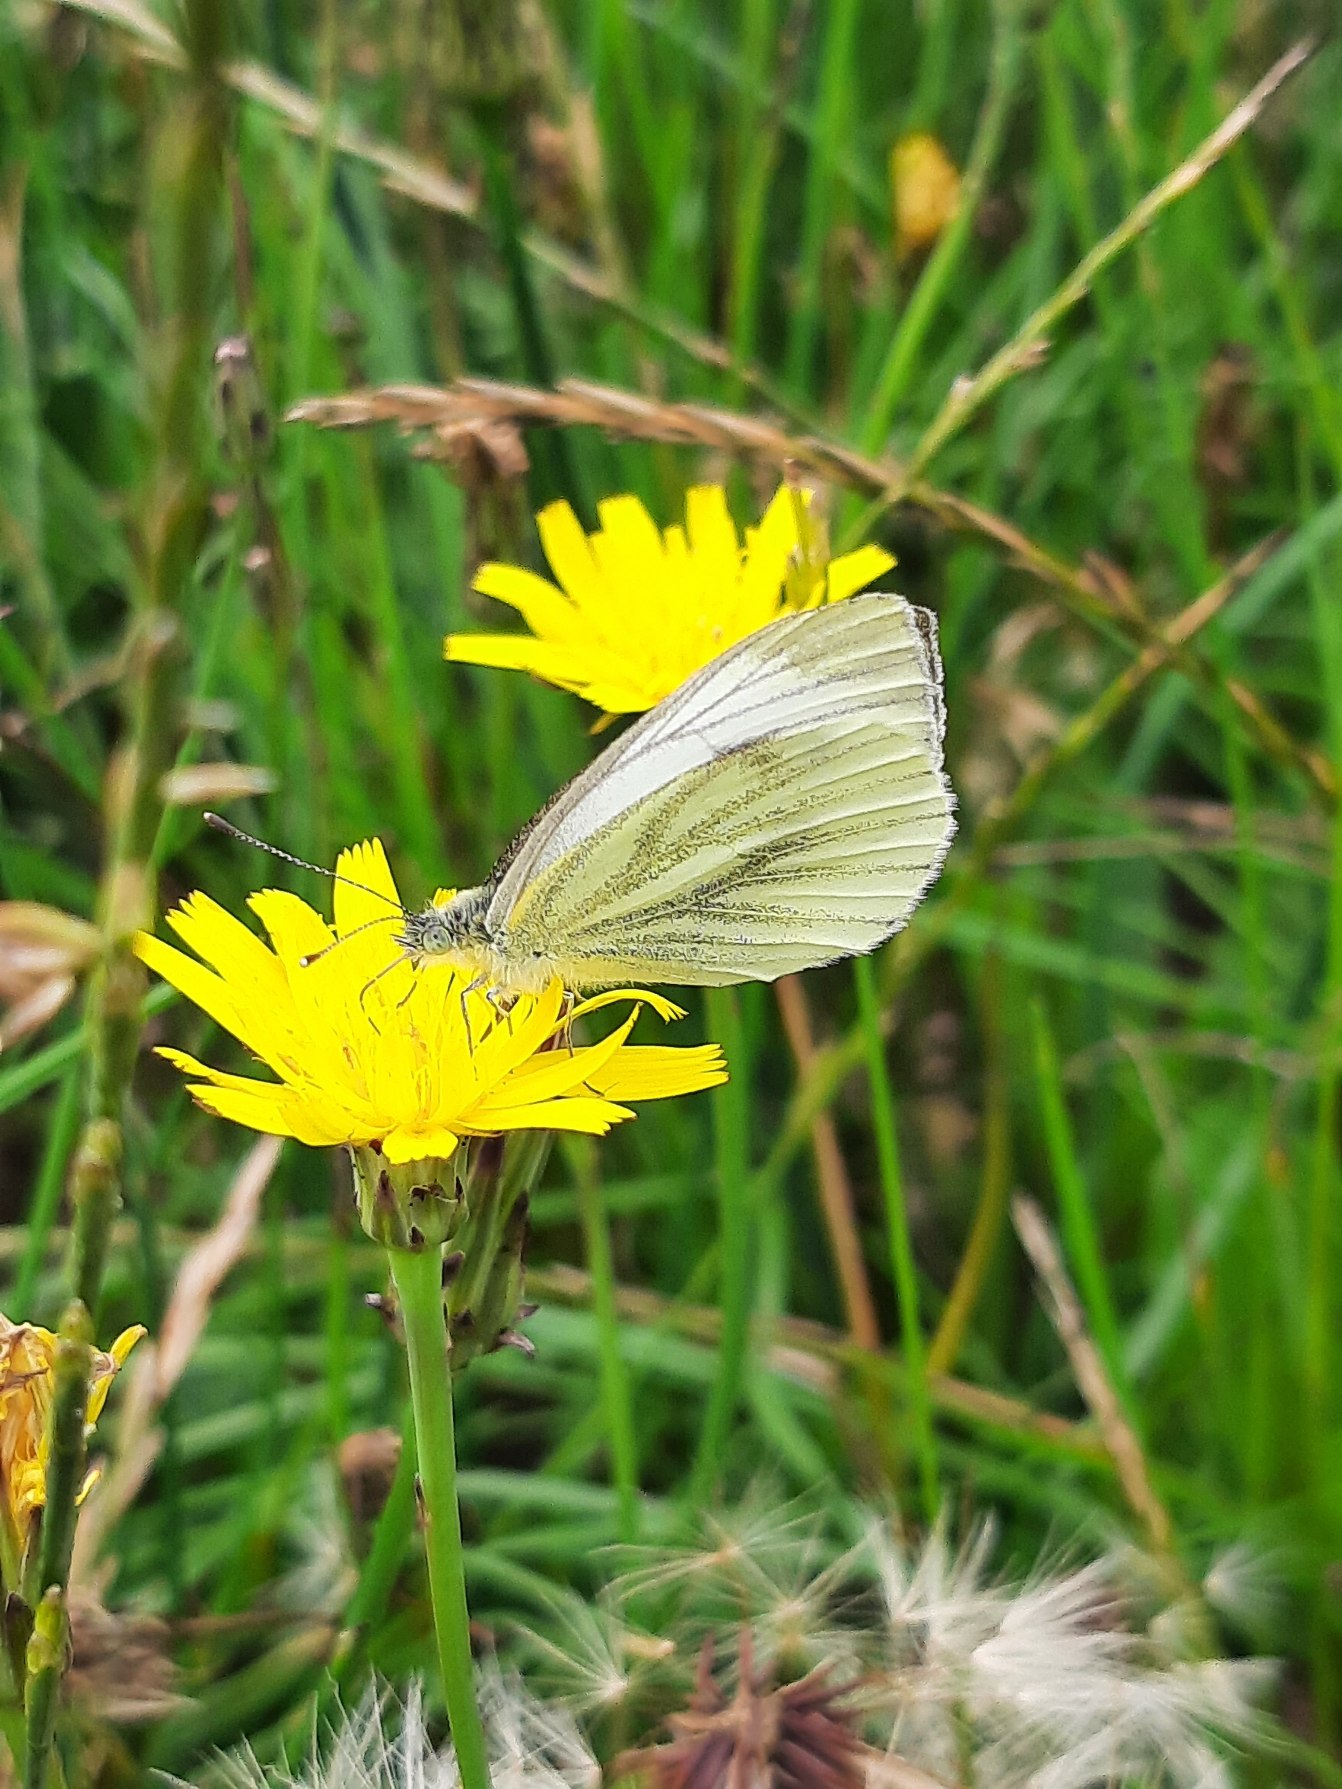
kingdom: Animalia
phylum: Arthropoda
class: Insecta
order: Lepidoptera
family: Pieridae
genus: Pieris
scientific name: Pieris napi
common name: Grønåret kålsommerfugl
